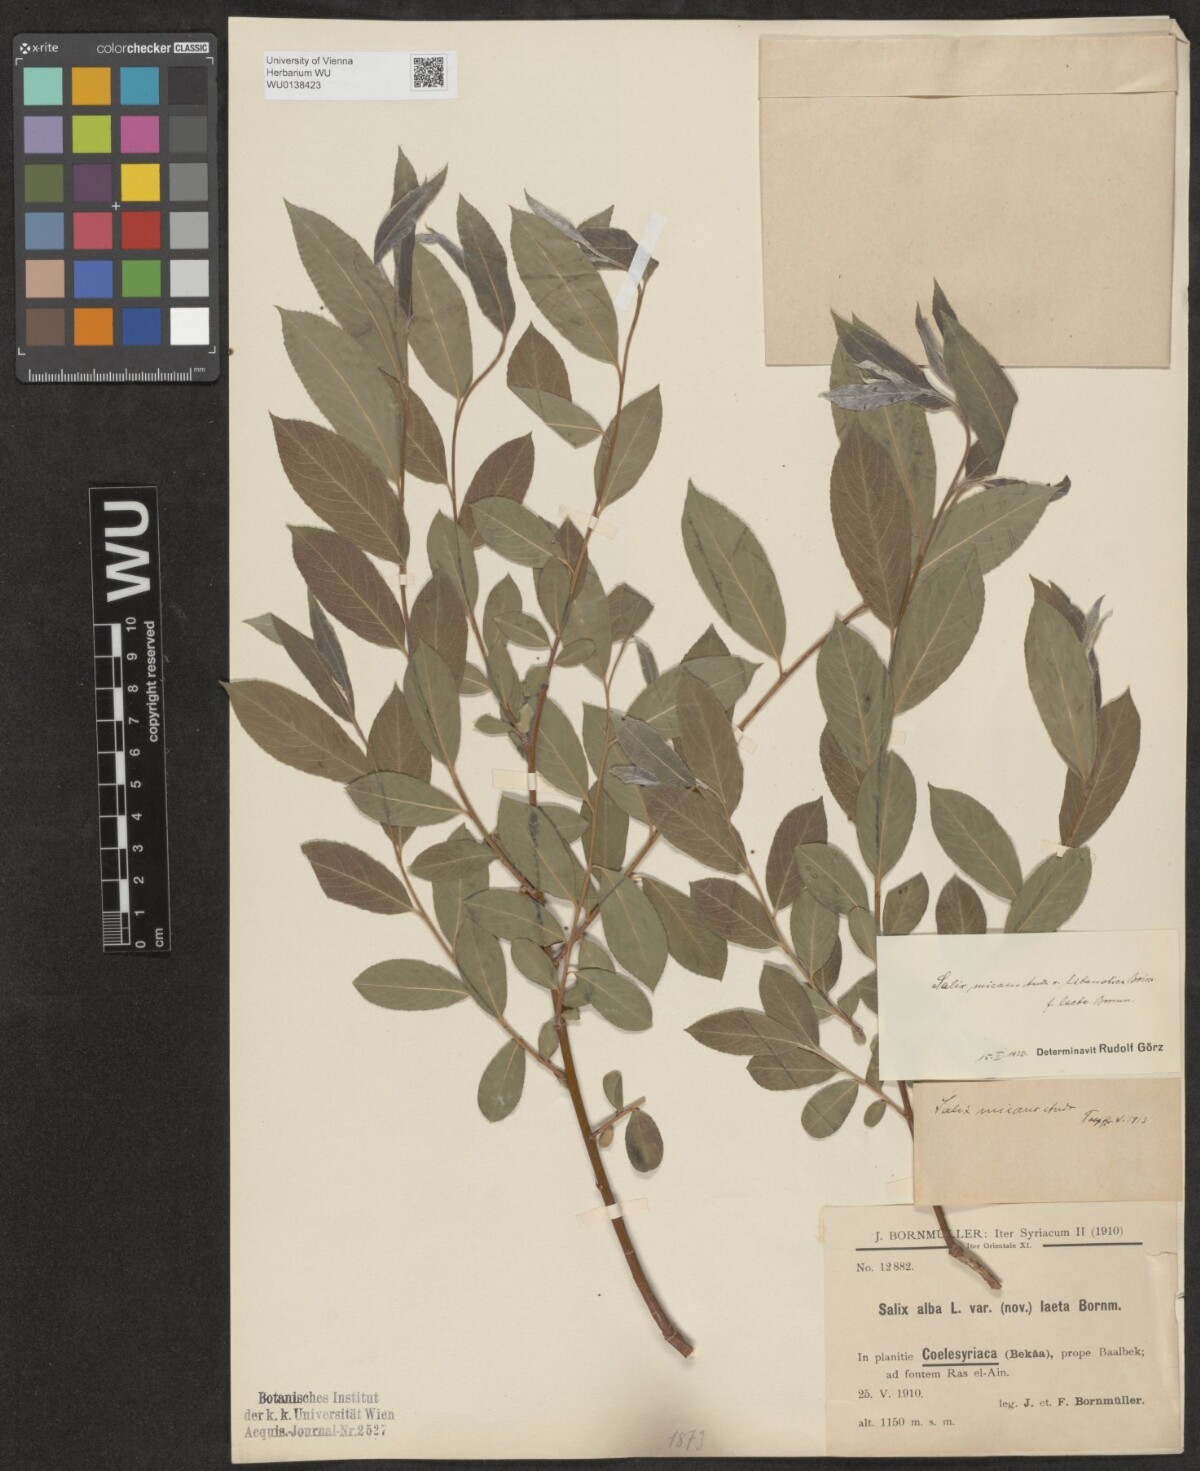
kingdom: Plantae
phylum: Tracheophyta
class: Magnoliopsida
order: Malpighiales
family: Salicaceae
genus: Salix
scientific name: Salix alba
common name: White willow
